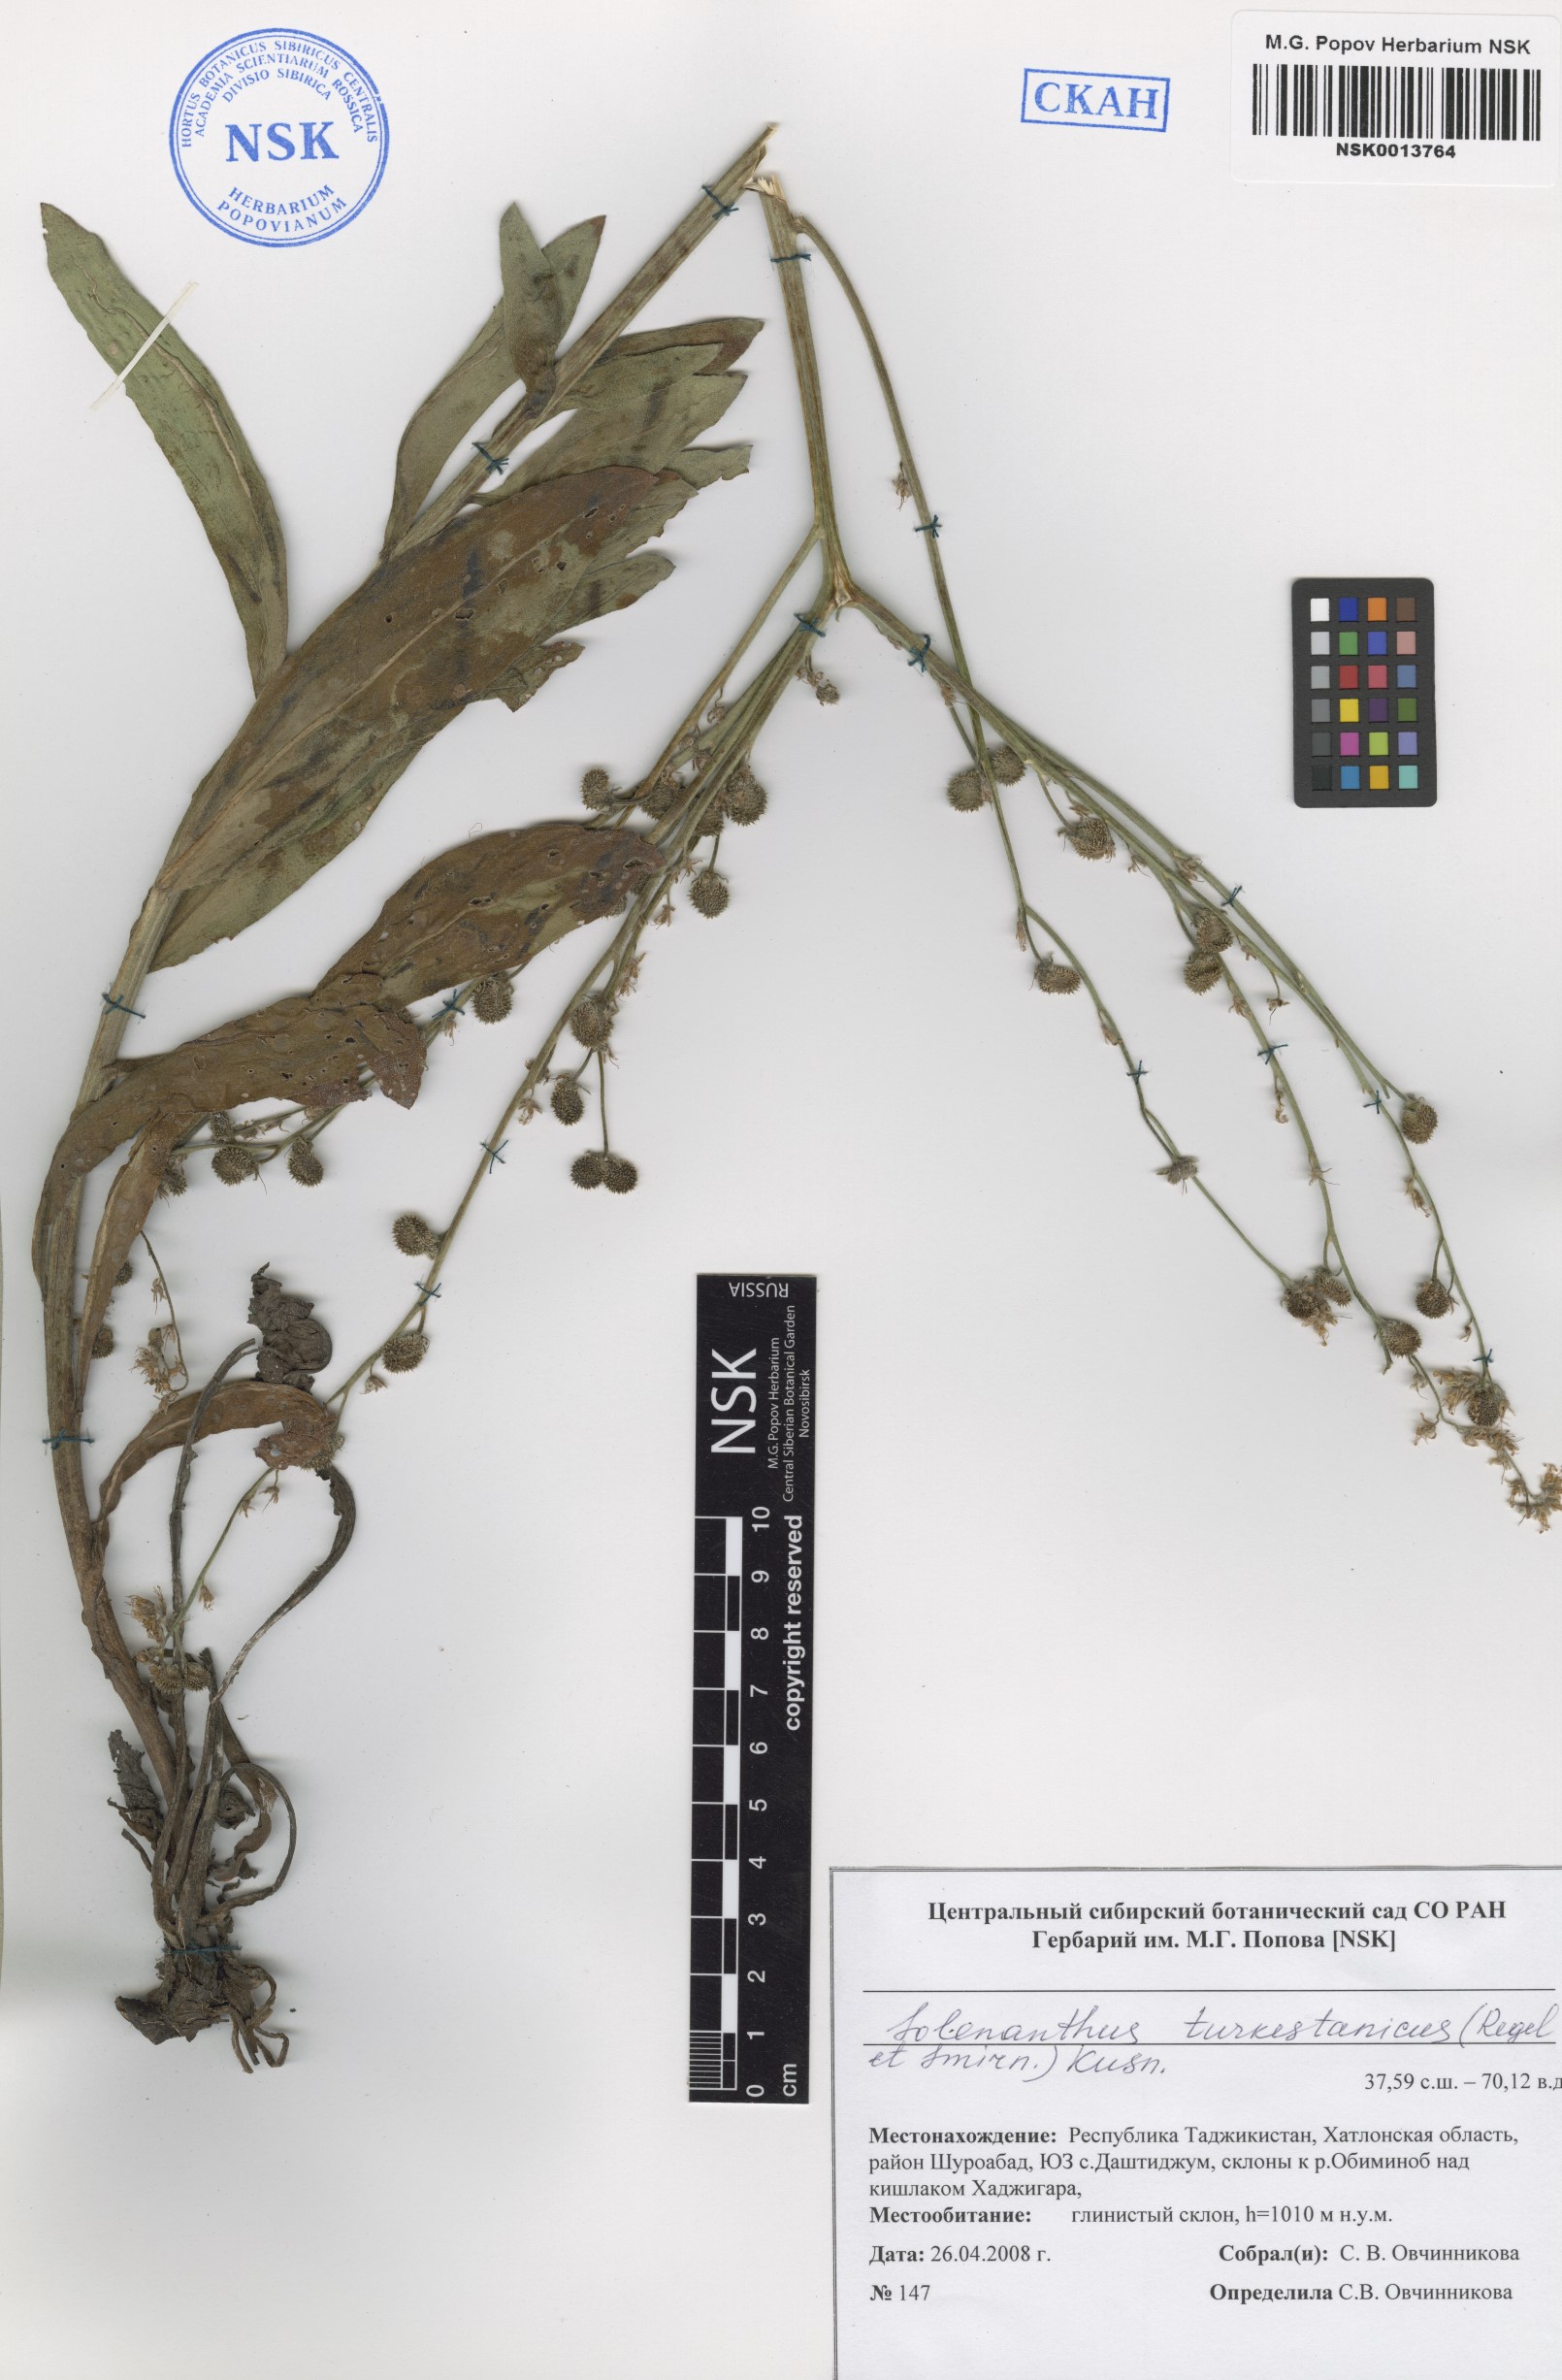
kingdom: Plantae
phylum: Tracheophyta
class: Magnoliopsida
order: Boraginales
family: Boraginaceae
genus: Solenanthus
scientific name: Solenanthus turkestanicus
